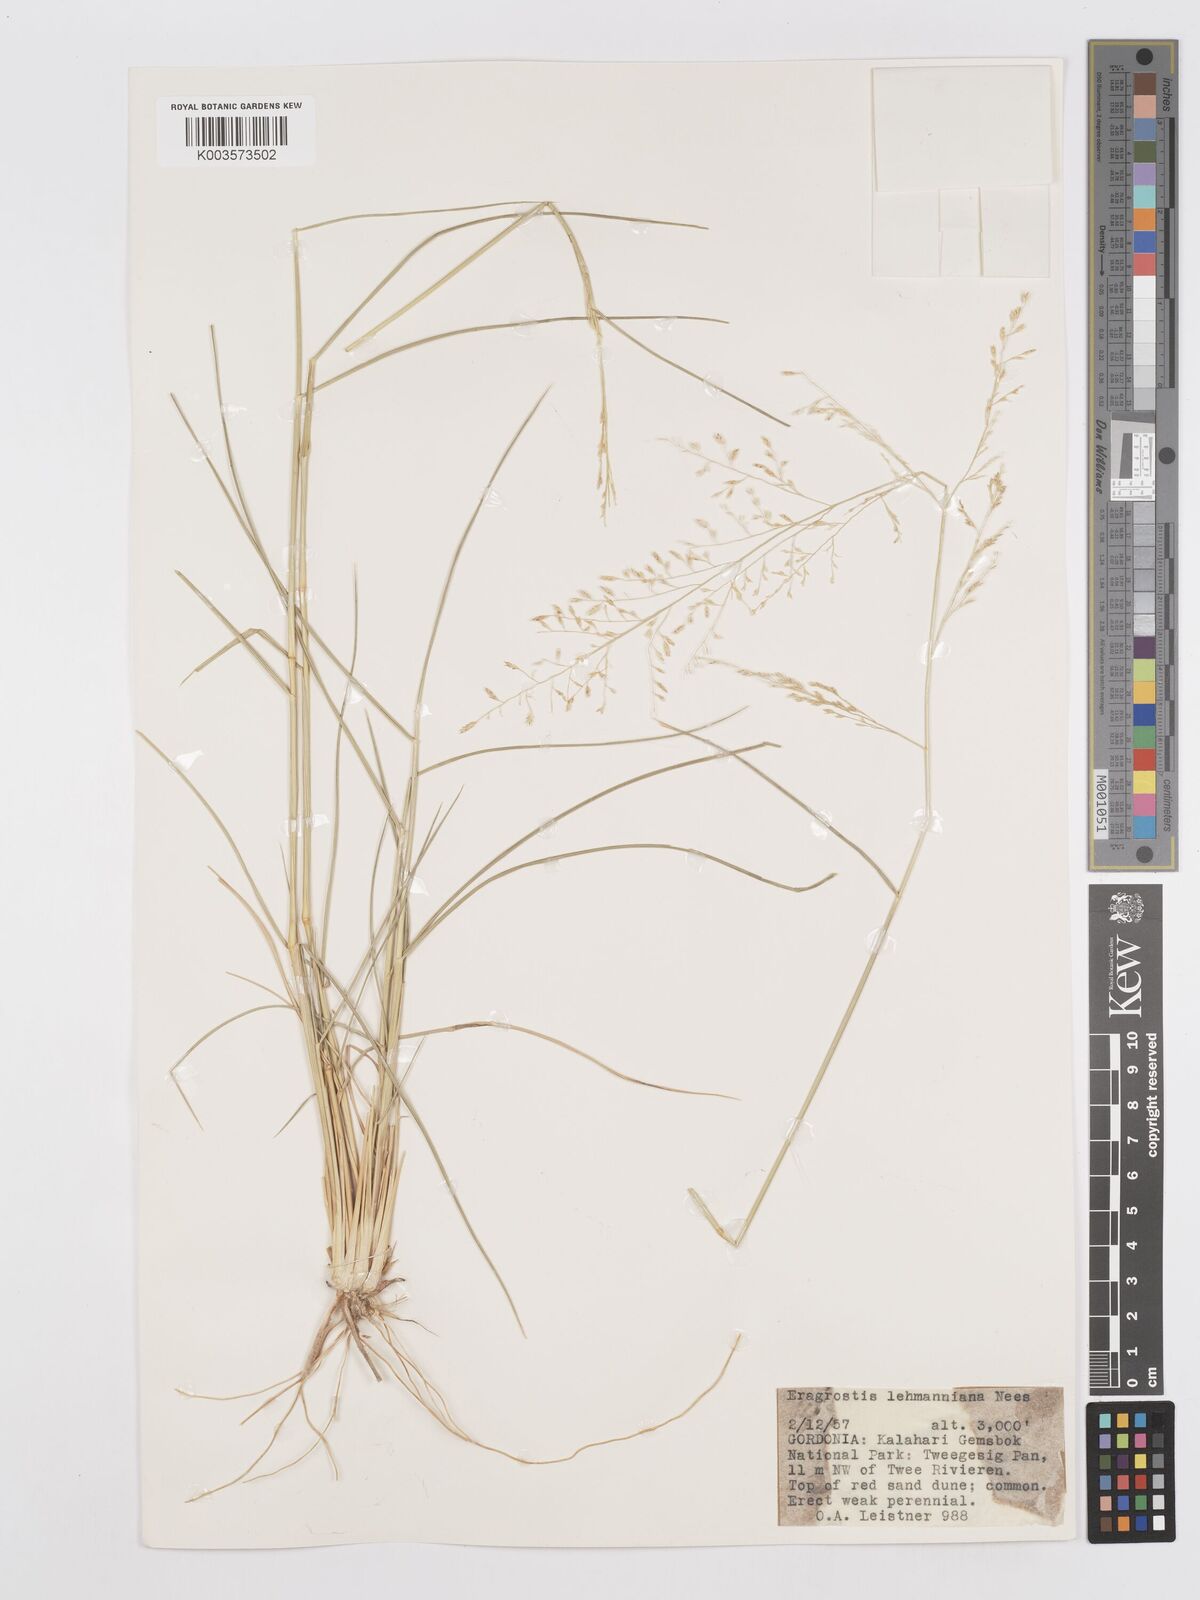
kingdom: Plantae
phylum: Tracheophyta
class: Liliopsida
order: Poales
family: Poaceae
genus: Eragrostis
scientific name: Eragrostis lehmanniana
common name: Lehmann lovegrass
